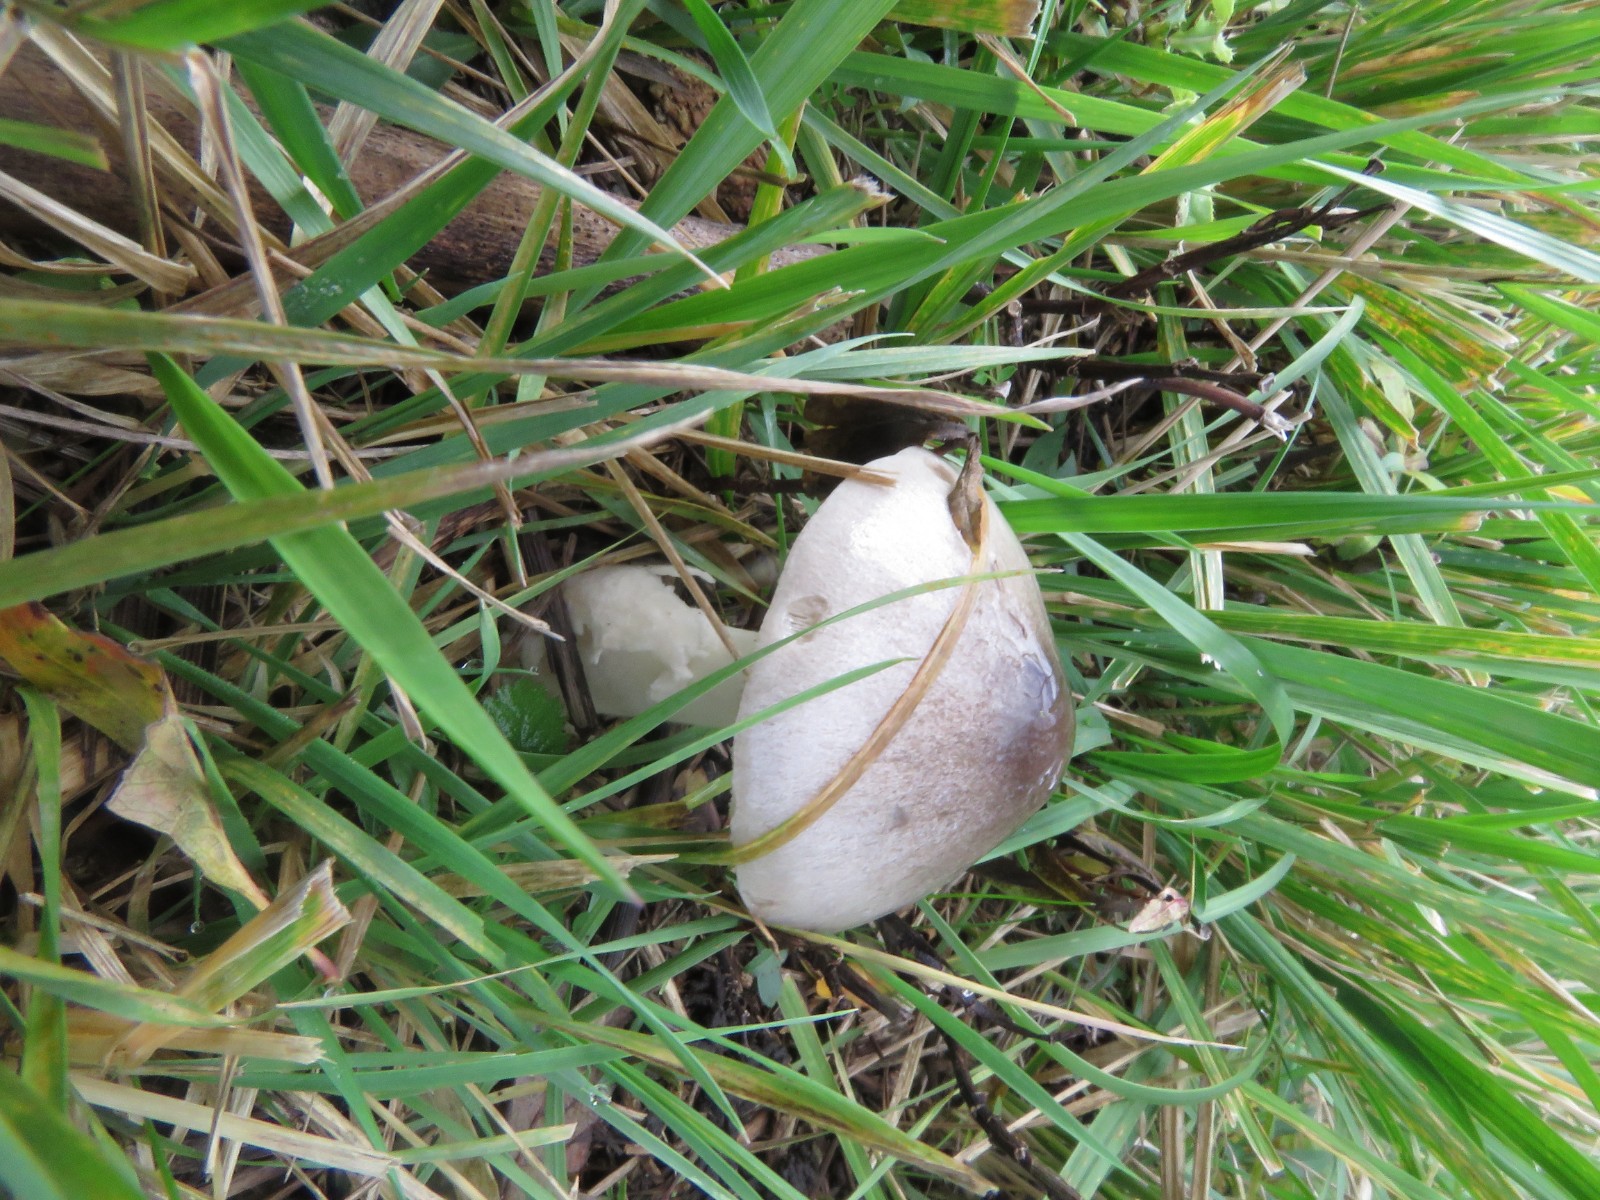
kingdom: Fungi
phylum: Basidiomycota
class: Agaricomycetes
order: Agaricales
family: Pluteaceae
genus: Volvopluteus
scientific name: Volvopluteus gloiocephalus
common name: høj posesvamp
